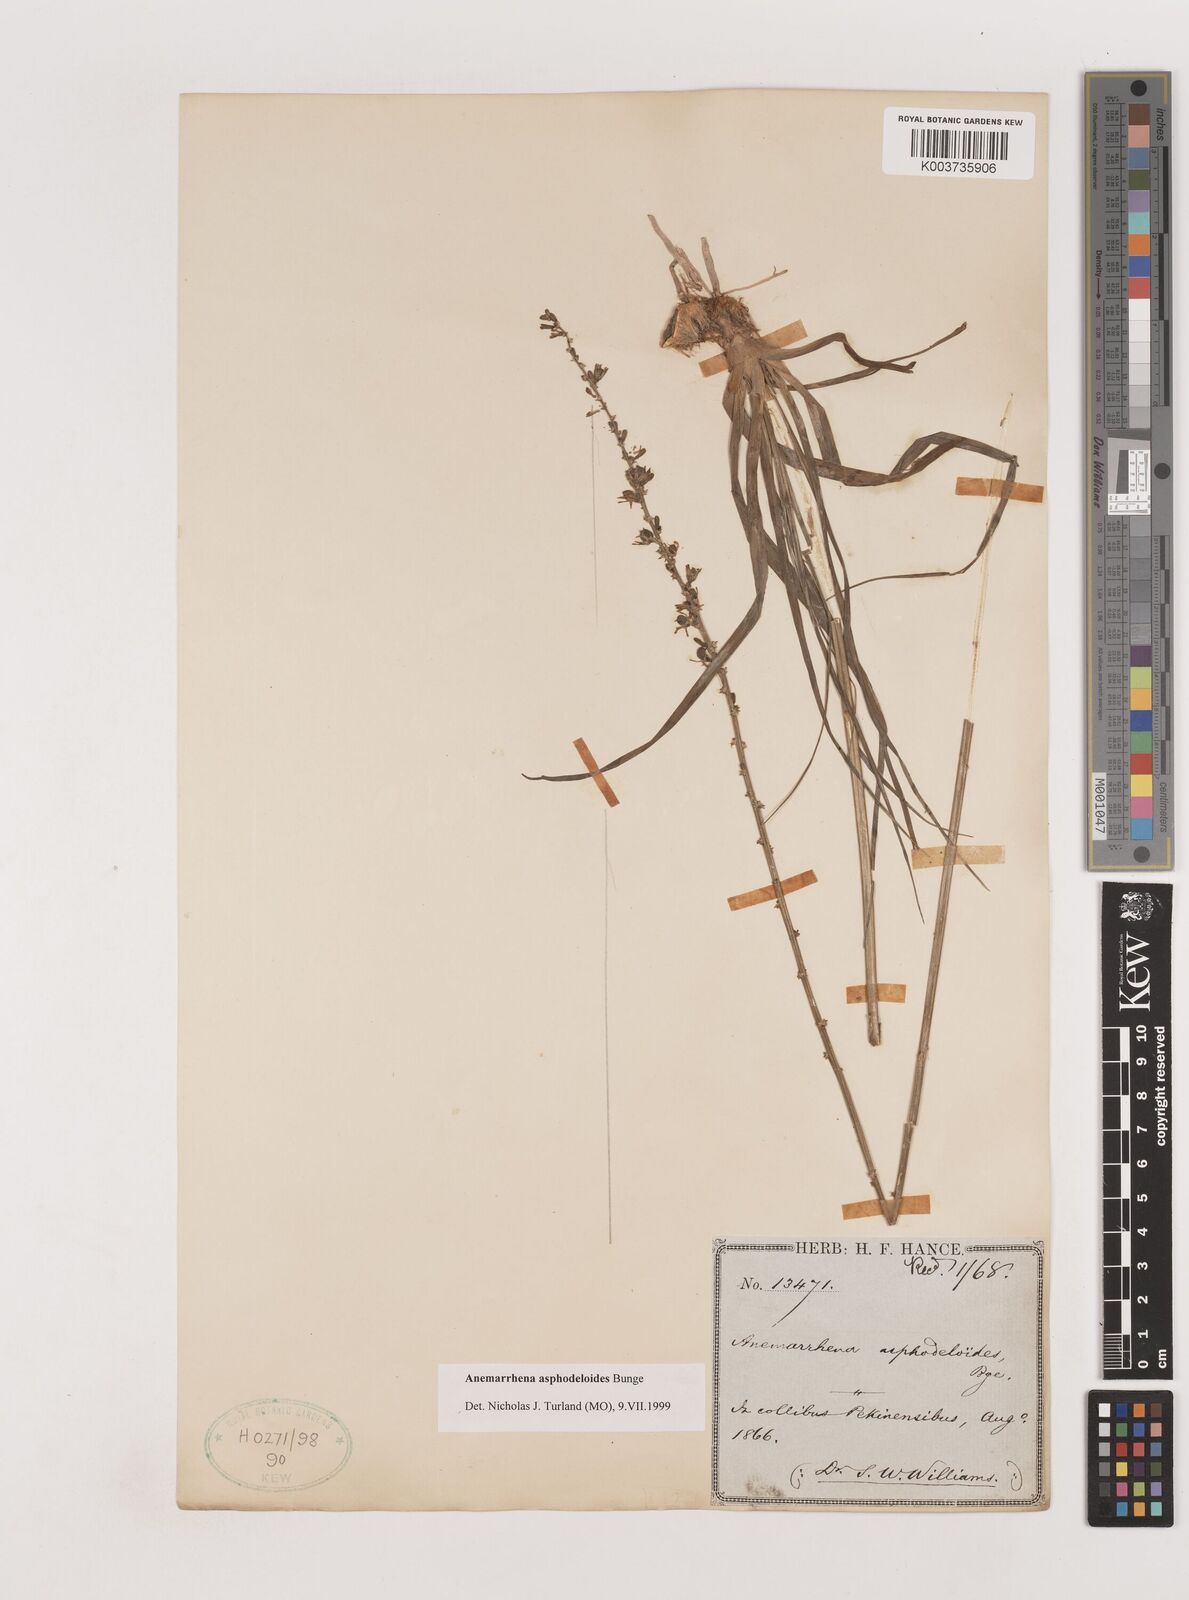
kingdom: Plantae
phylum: Tracheophyta
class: Liliopsida
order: Asparagales
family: Asparagaceae
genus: Anemarrhena
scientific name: Anemarrhena asphodeloides
